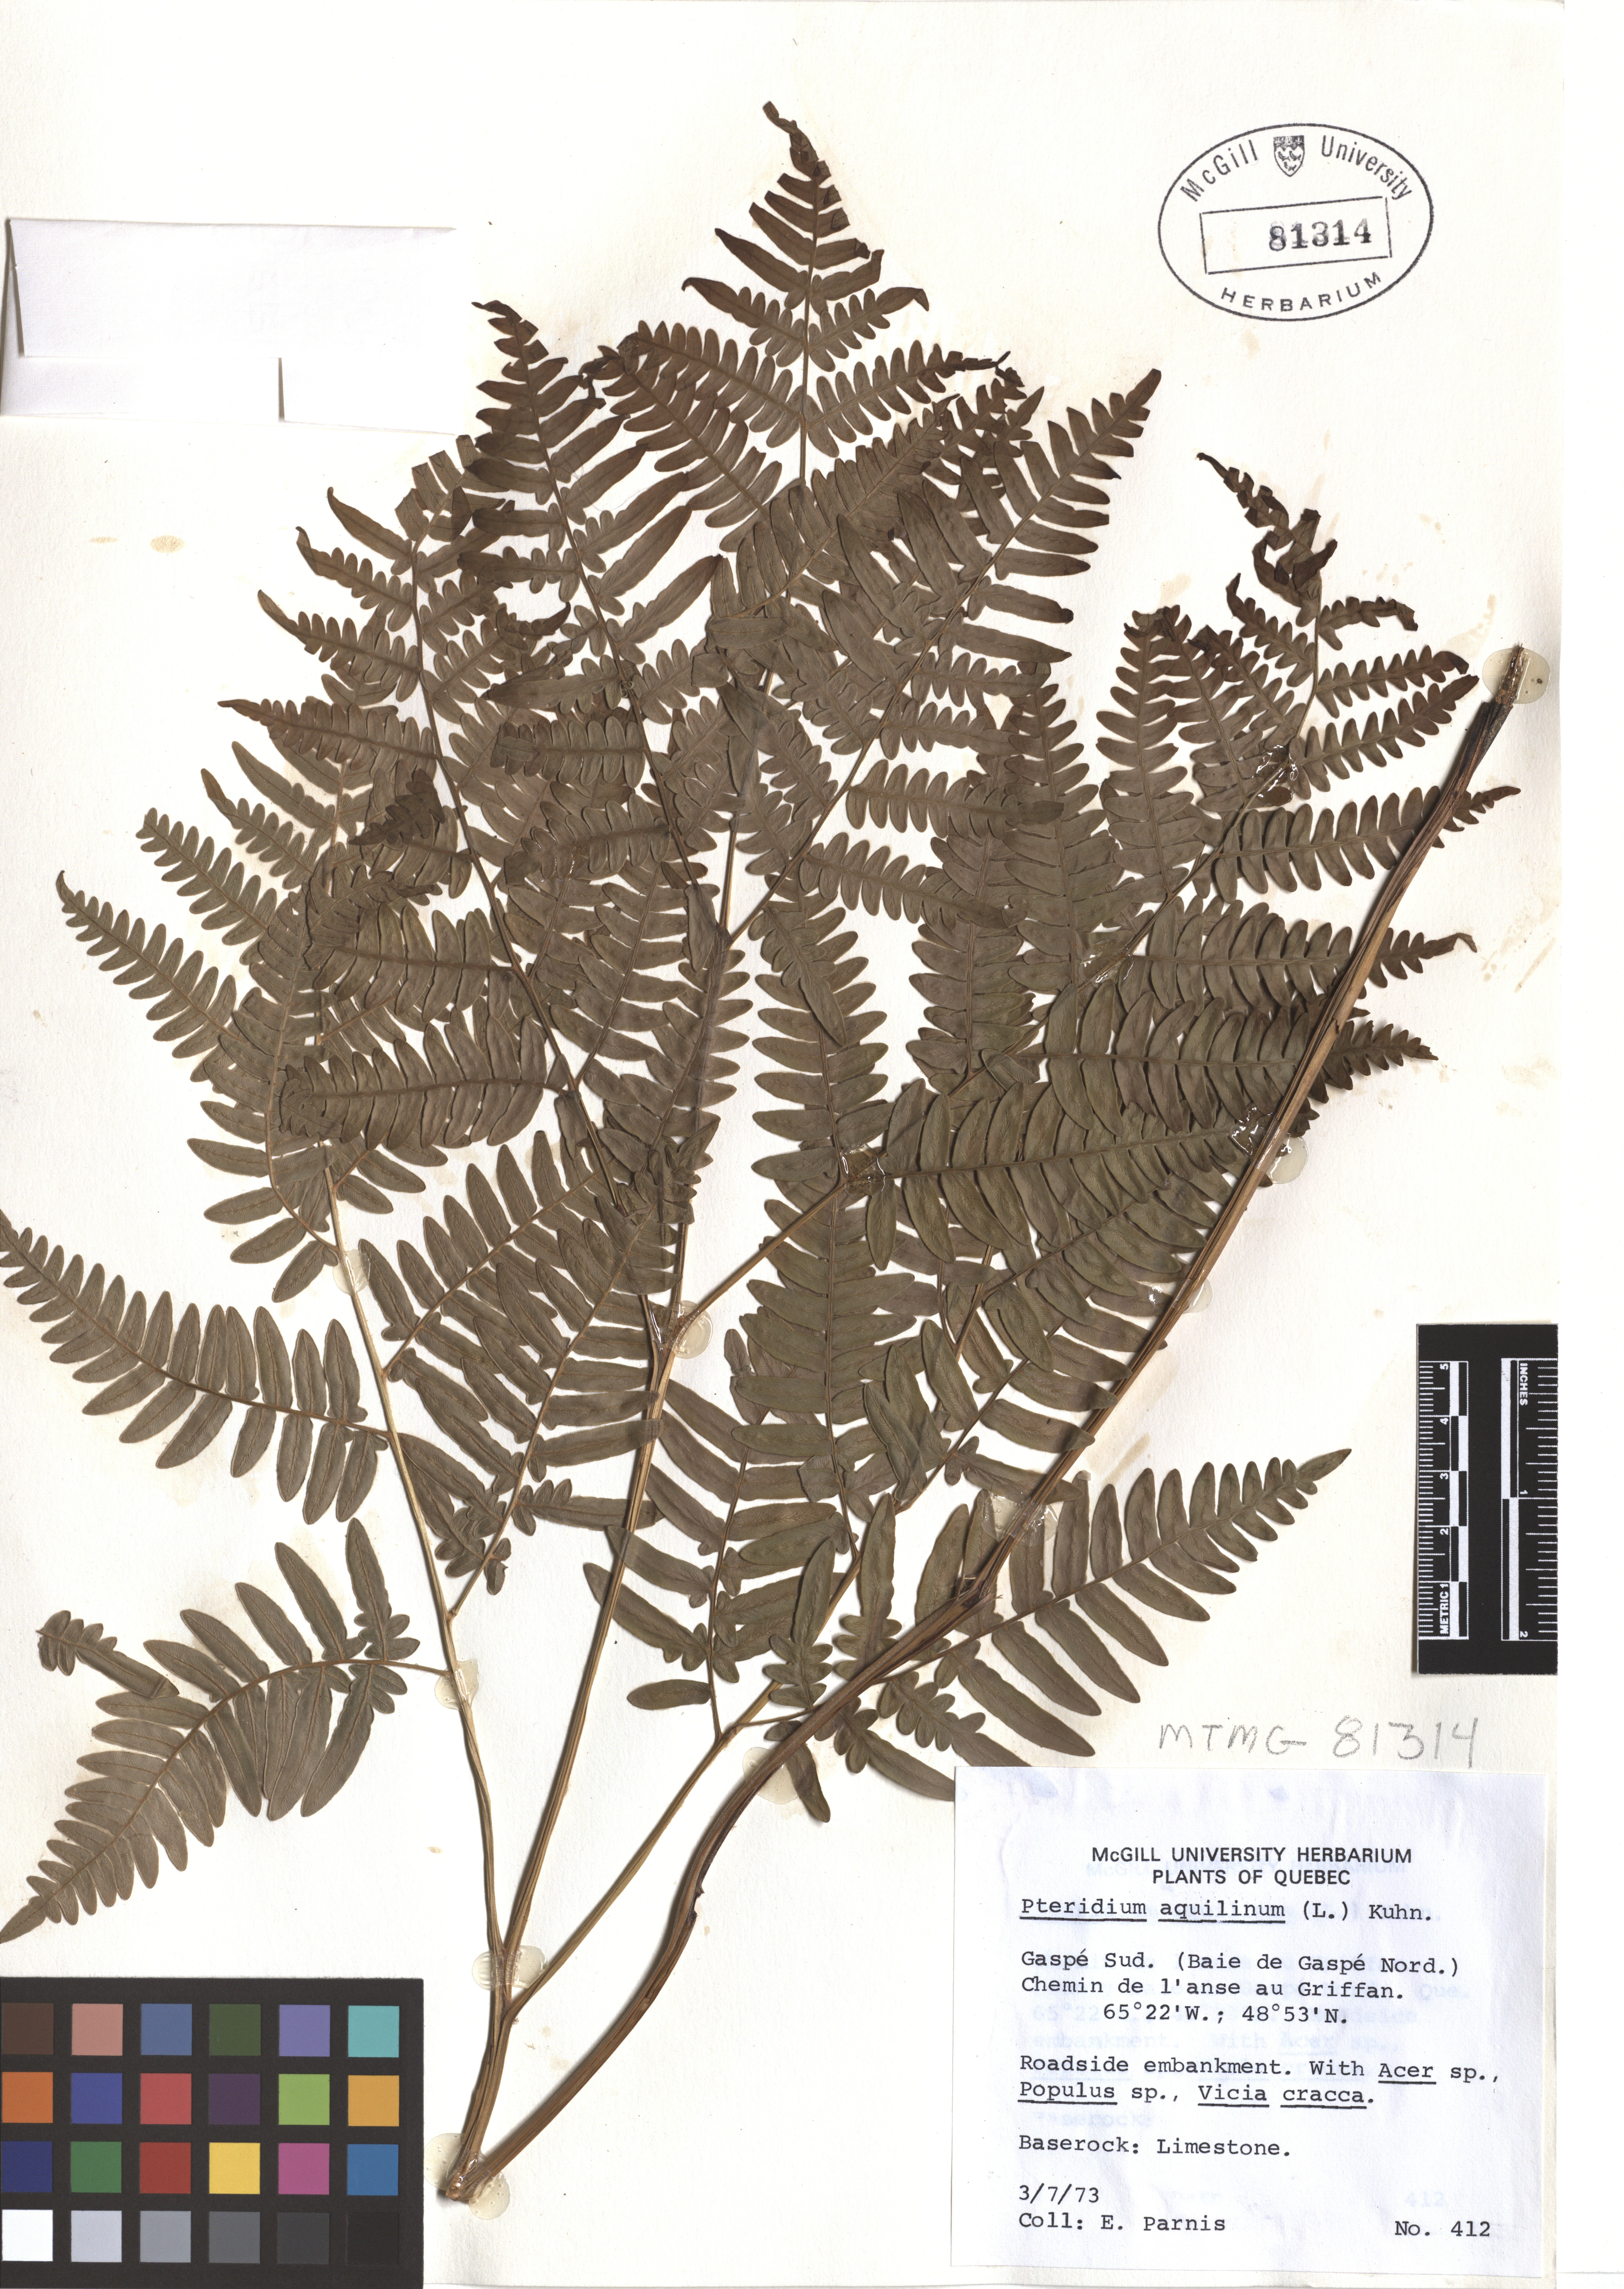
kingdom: Plantae
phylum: Tracheophyta
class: Polypodiopsida
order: Polypodiales
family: Dennstaedtiaceae
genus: Pteridium
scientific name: Pteridium aquilinum
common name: Bracken
